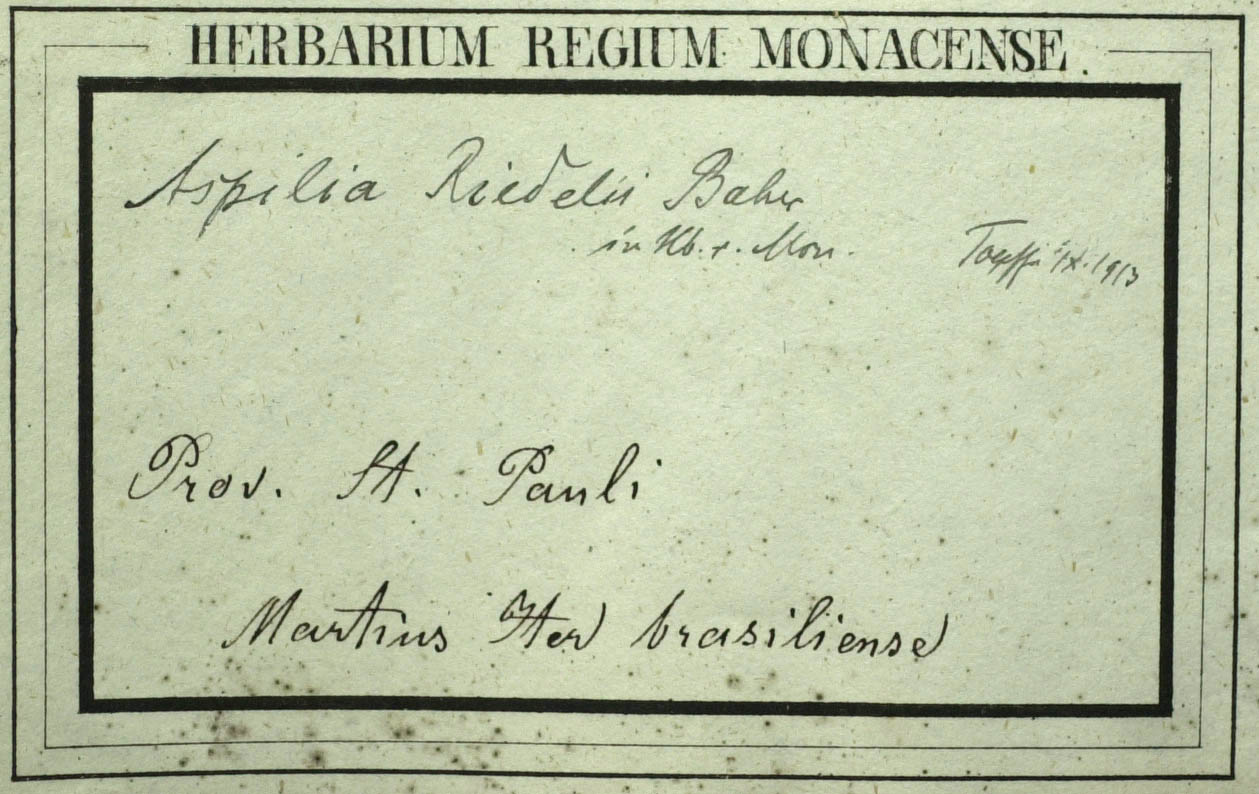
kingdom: Plantae
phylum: Tracheophyta
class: Magnoliopsida
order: Asterales
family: Asteraceae
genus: Wedelia
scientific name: Wedelia riedellii
